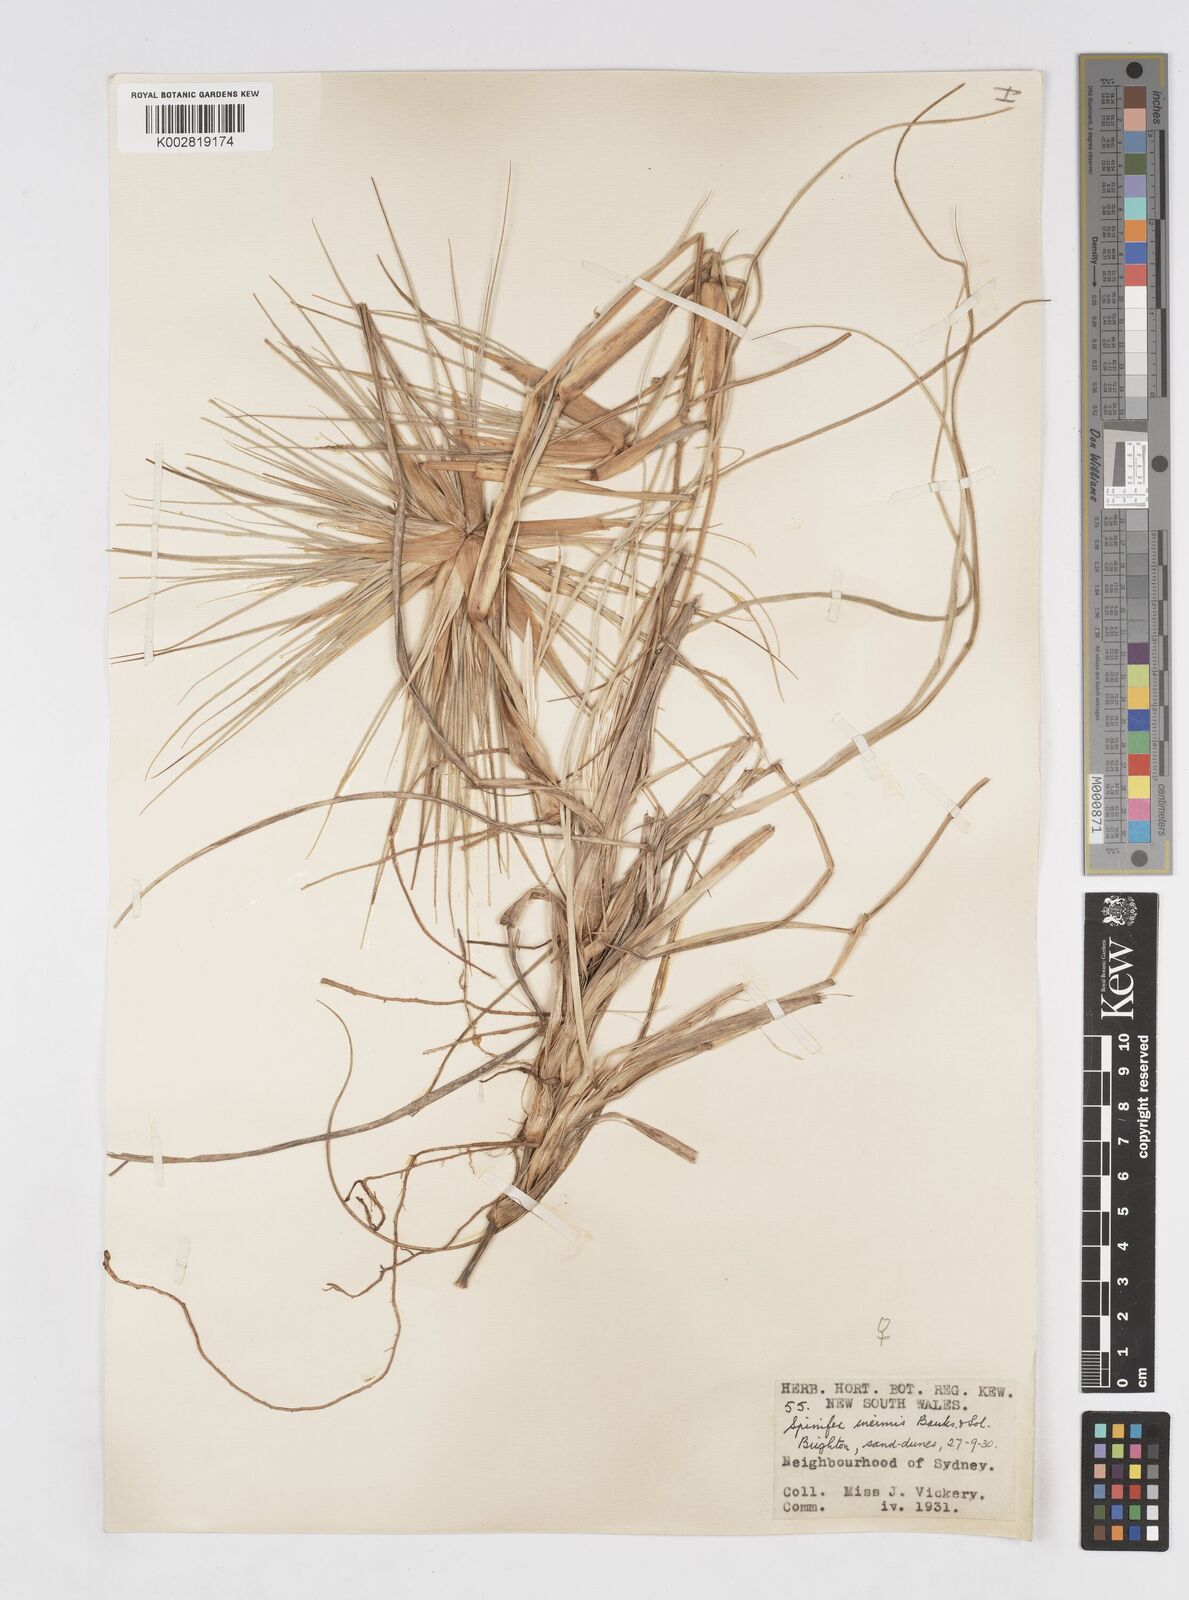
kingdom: Plantae
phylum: Tracheophyta
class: Liliopsida
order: Poales
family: Poaceae
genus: Spinifex
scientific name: Spinifex hirsutus
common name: Hairy spinifex
